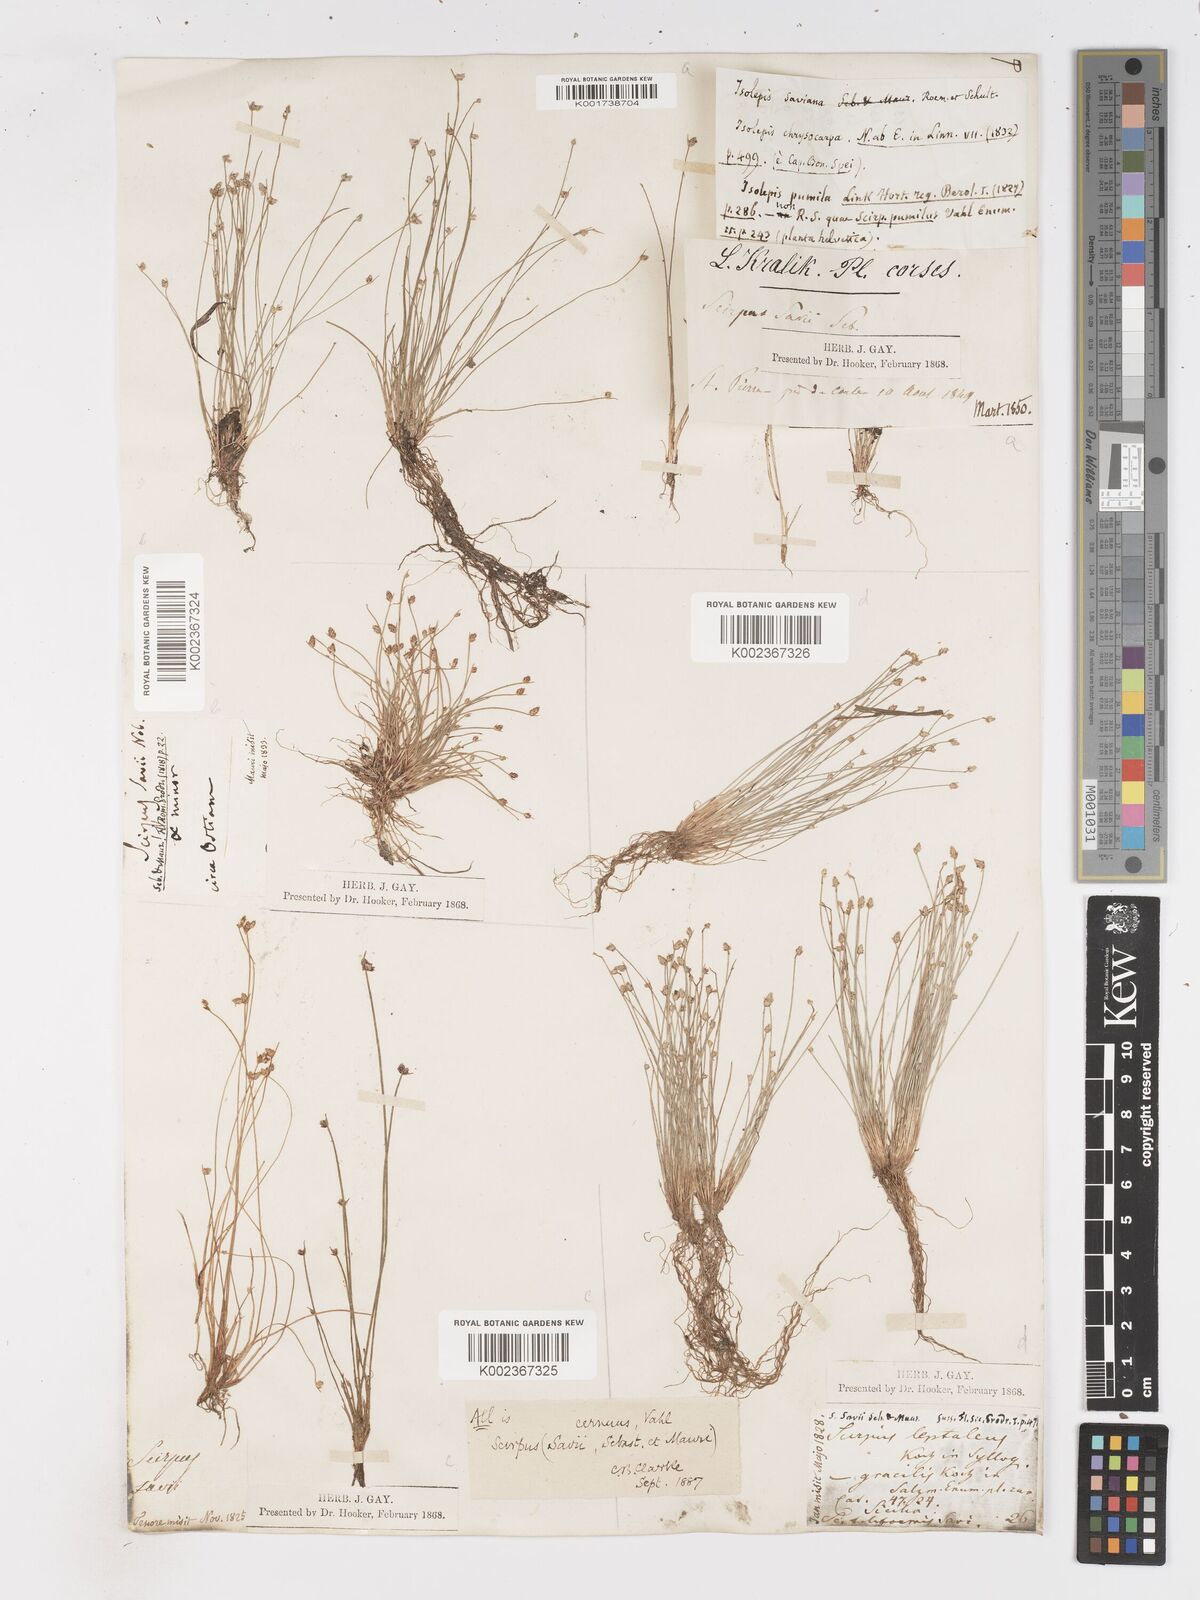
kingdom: Plantae
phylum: Tracheophyta
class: Liliopsida
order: Poales
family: Cyperaceae
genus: Isolepis
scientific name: Isolepis cernua
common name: Slender club-rush
